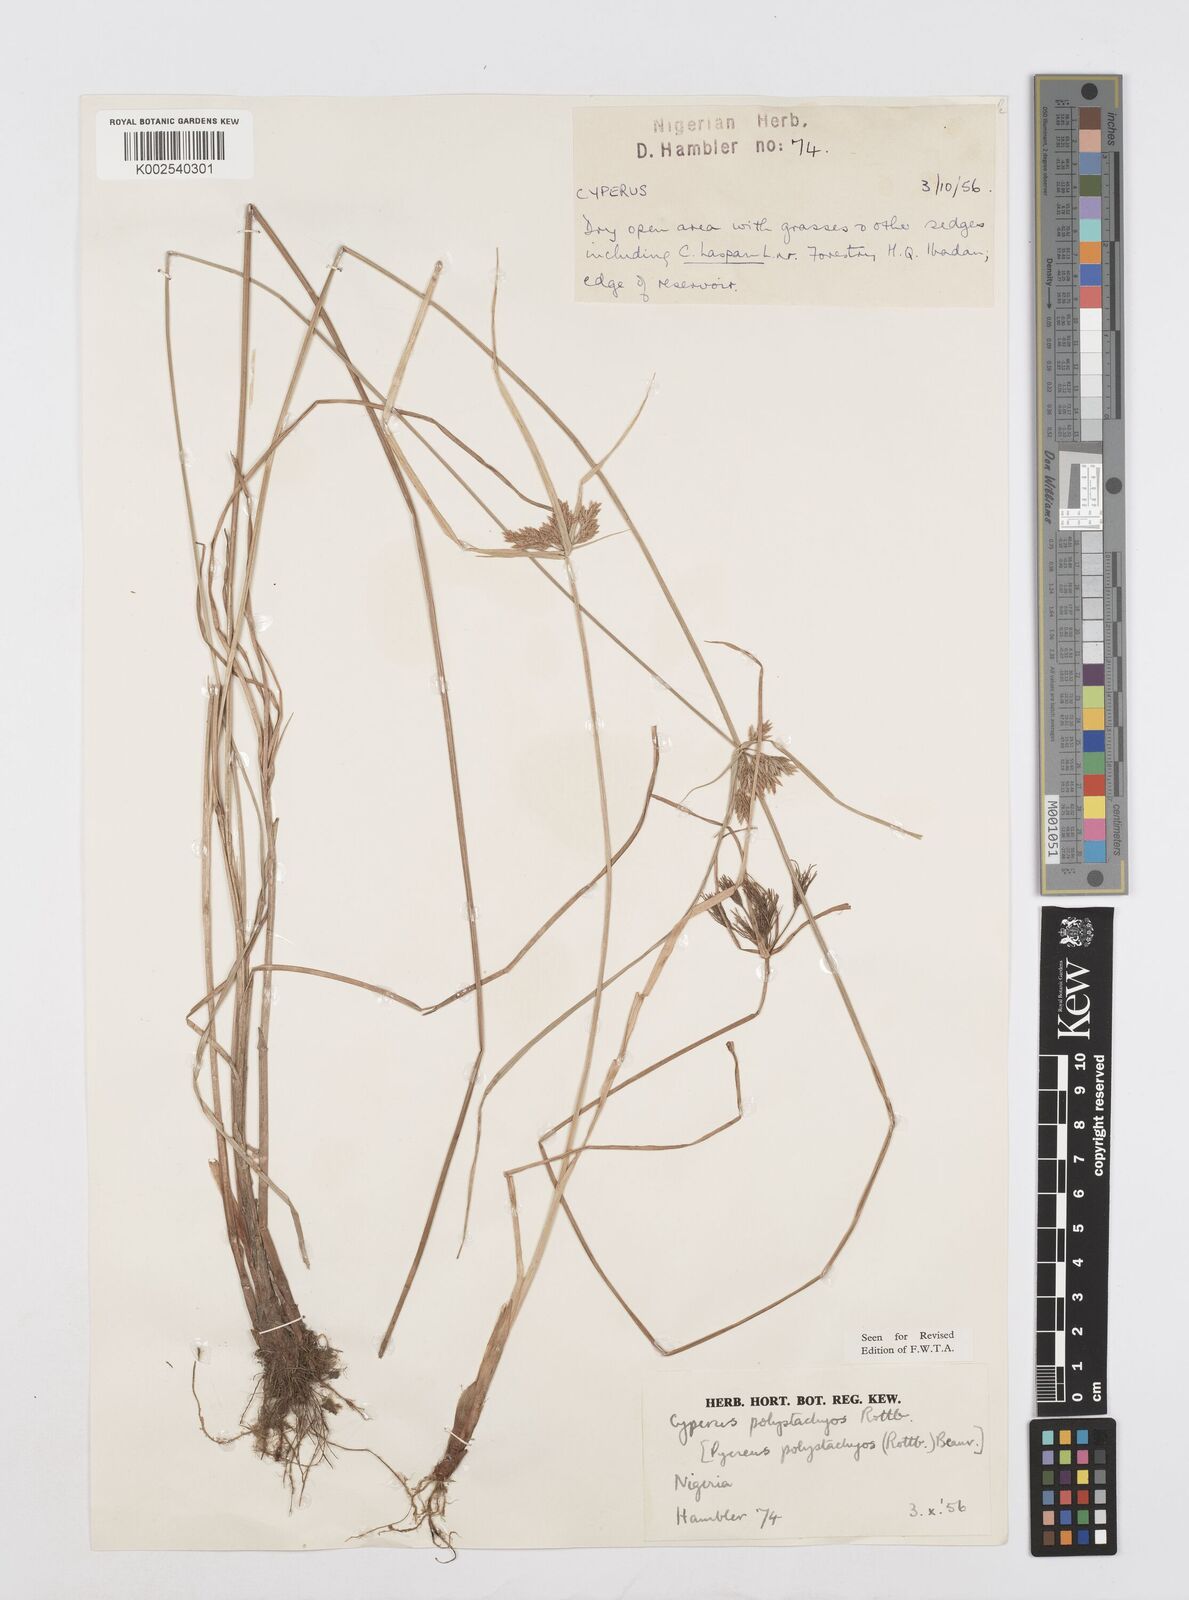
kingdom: Plantae
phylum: Tracheophyta
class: Liliopsida
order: Poales
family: Cyperaceae
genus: Cyperus
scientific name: Cyperus polystachyos
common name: Bunchy flat sedge
